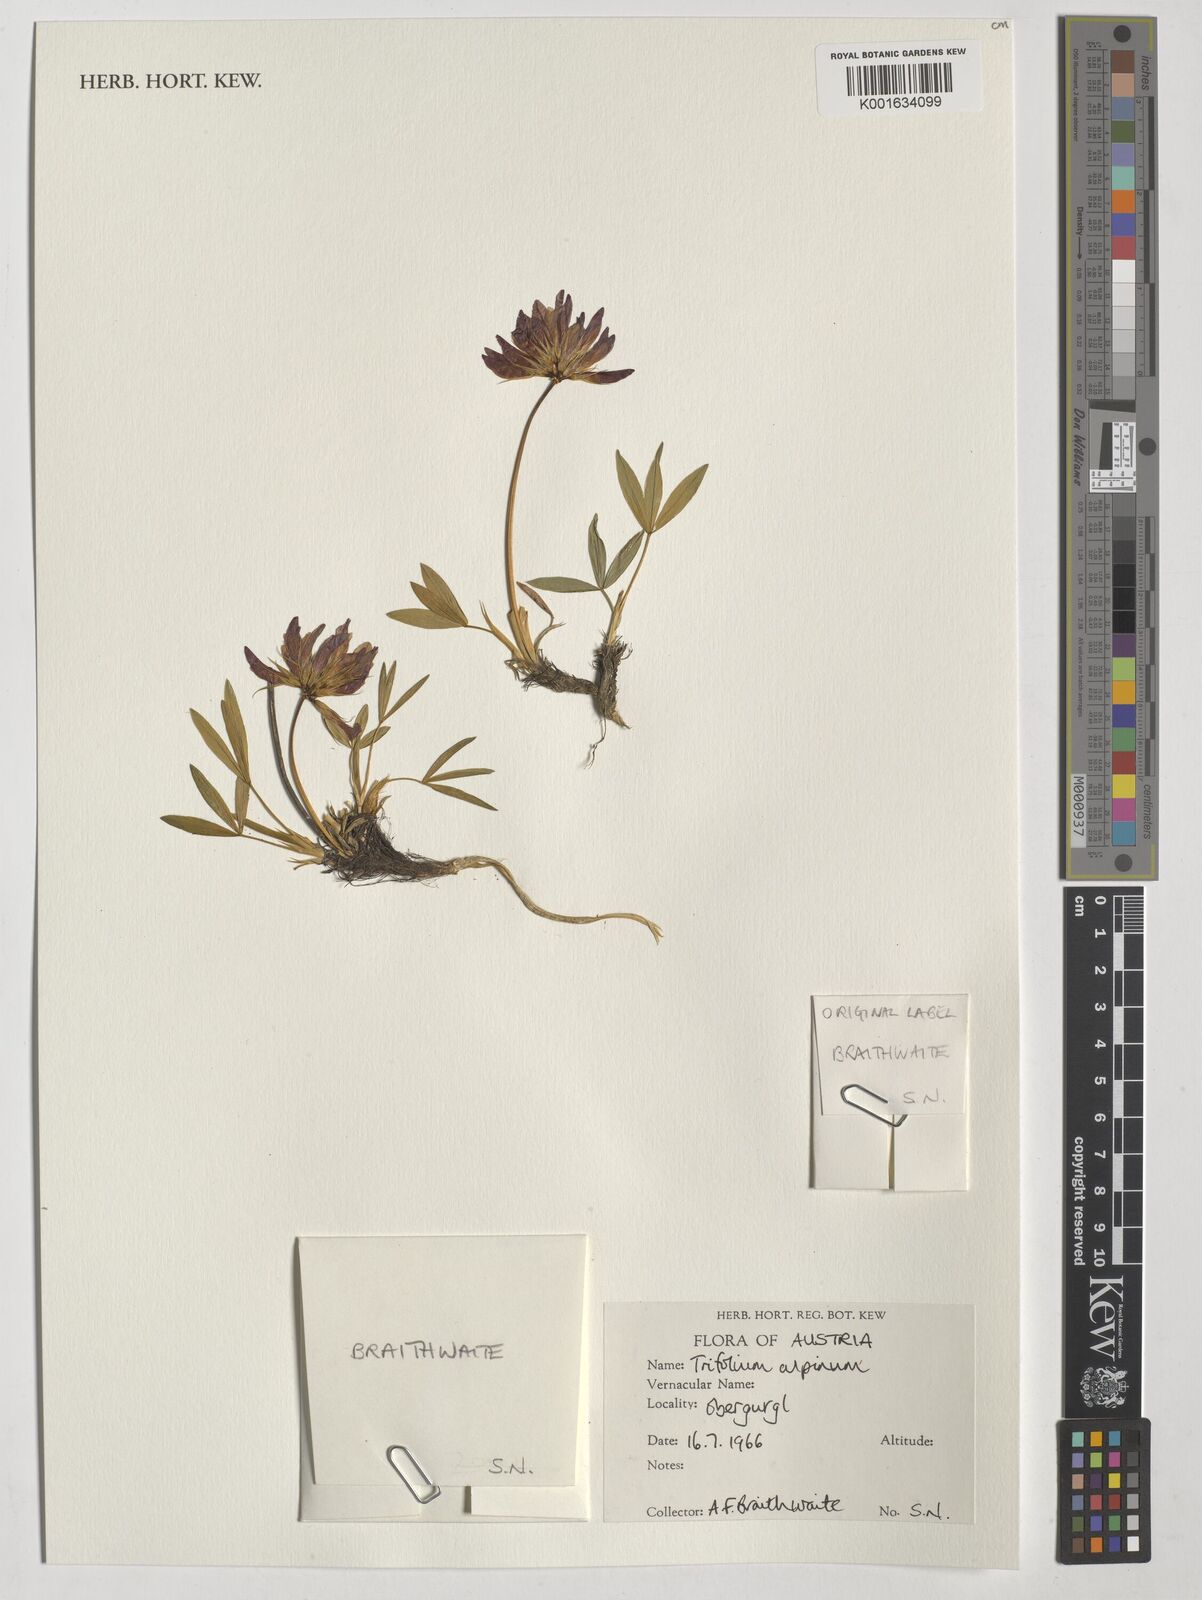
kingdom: Plantae
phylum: Tracheophyta
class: Magnoliopsida
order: Fabales
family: Fabaceae
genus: Trifolium
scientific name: Trifolium alpinum
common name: Alpine clover
